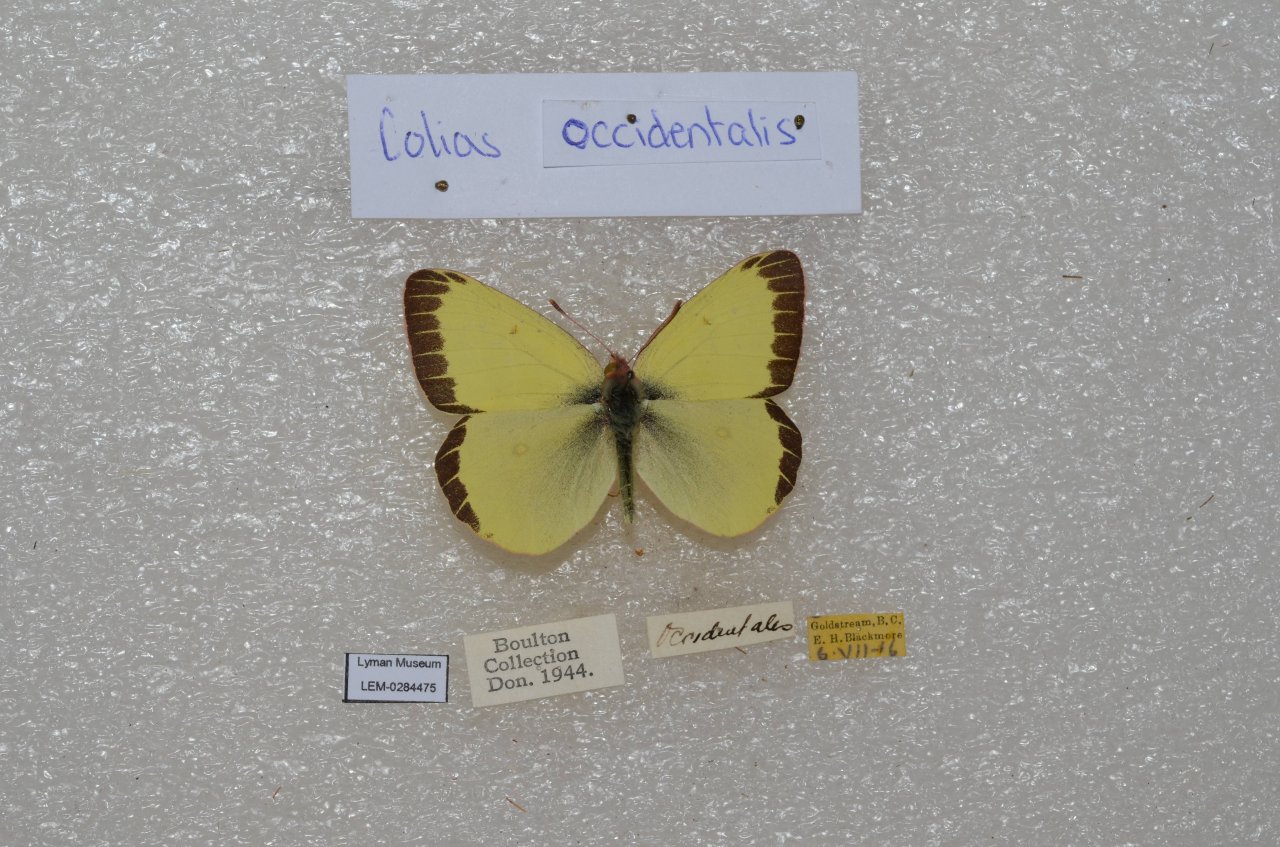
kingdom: Animalia
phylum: Arthropoda
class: Insecta
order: Lepidoptera
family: Pieridae
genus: Colias
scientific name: Colias occidentalis
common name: Western Sulphur
